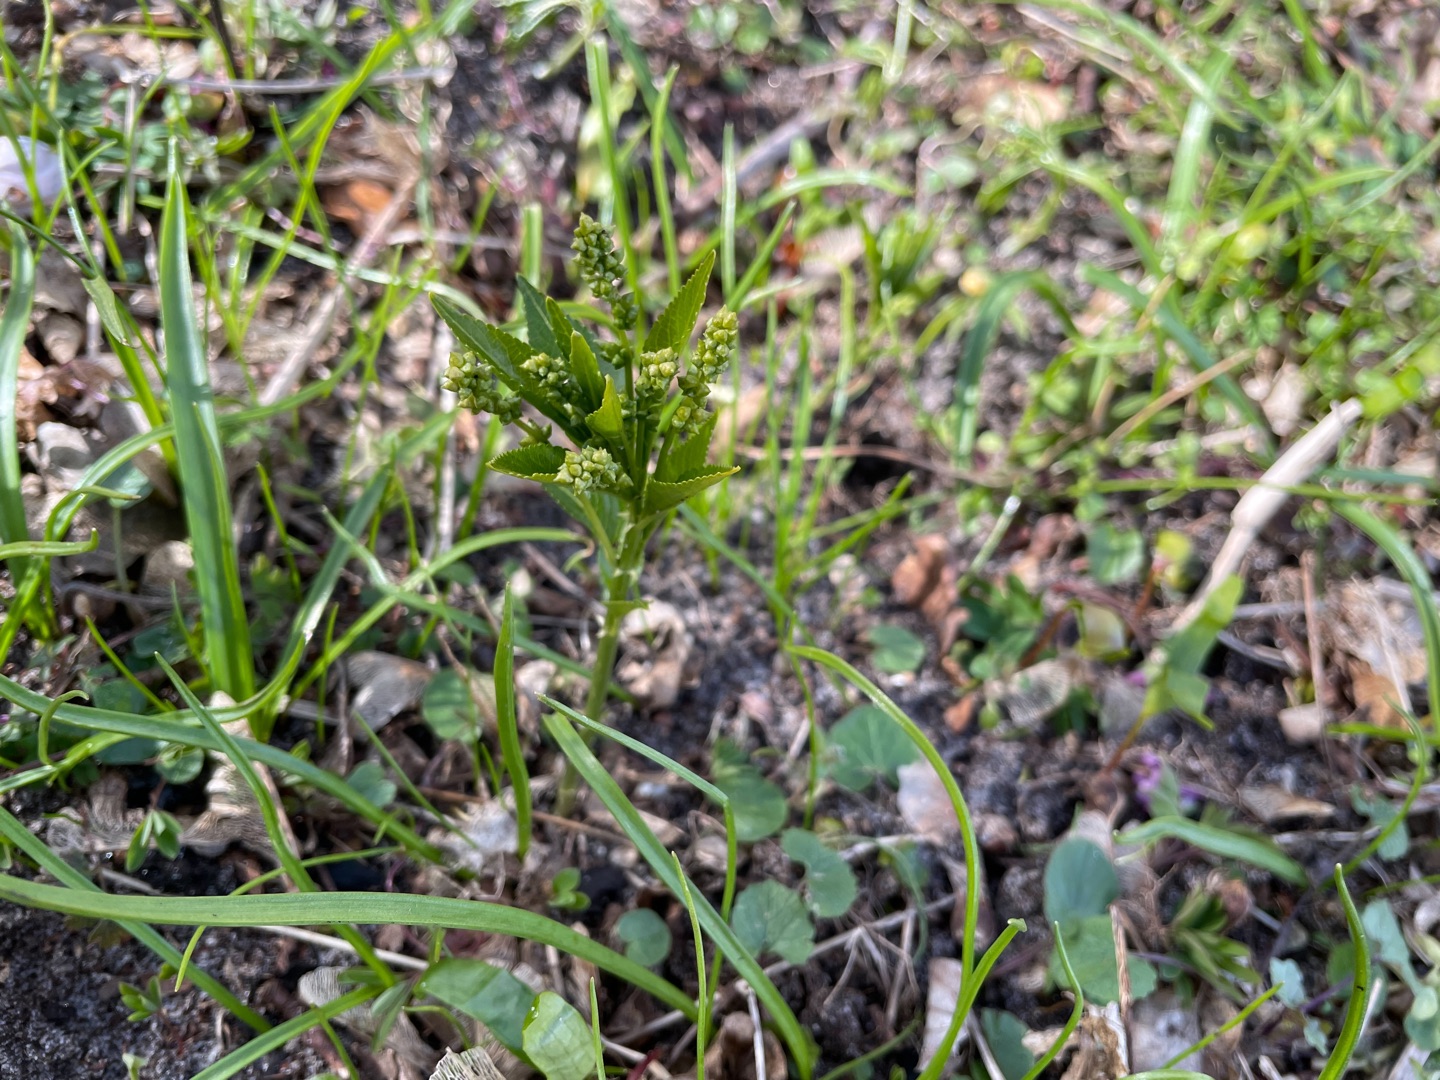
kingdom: Plantae
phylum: Tracheophyta
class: Magnoliopsida
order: Malpighiales
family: Euphorbiaceae
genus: Mercurialis
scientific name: Mercurialis perennis
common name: Almindelig bingelurt
